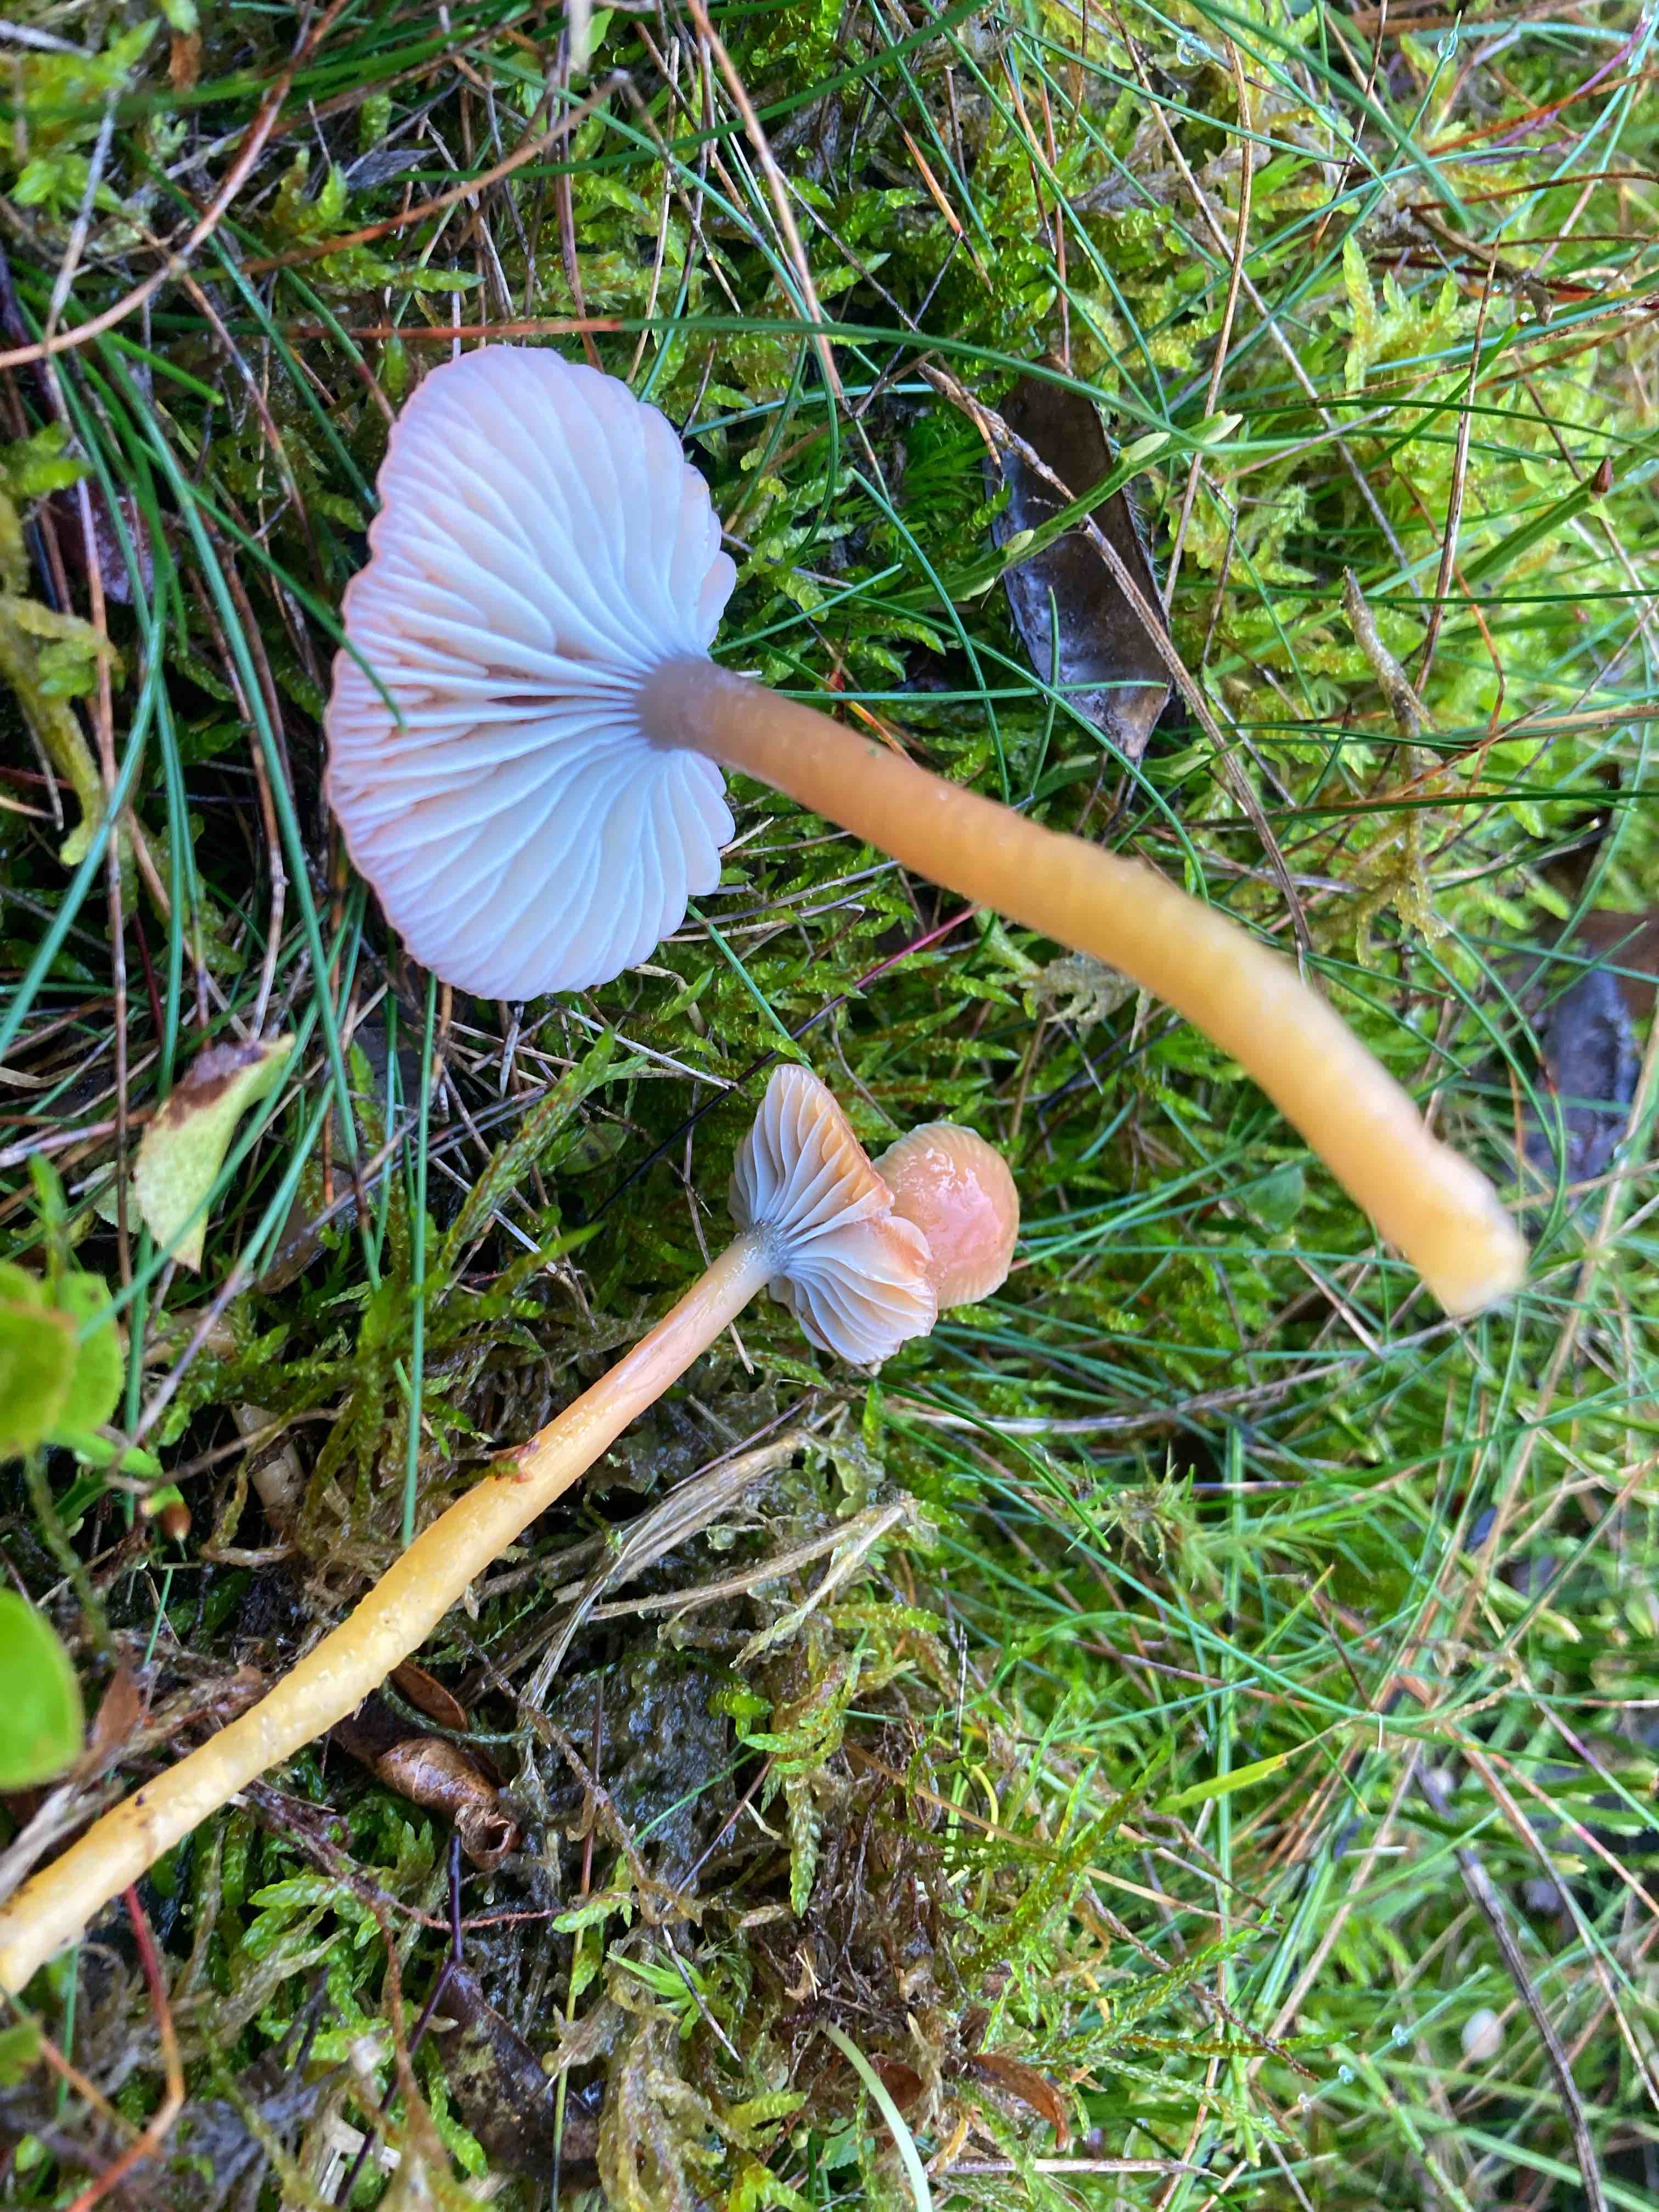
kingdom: Fungi
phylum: Basidiomycota
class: Agaricomycetes
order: Agaricales
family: Hygrophoraceae
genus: Gliophorus
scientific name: Gliophorus laetus
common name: brusk-vokshat
